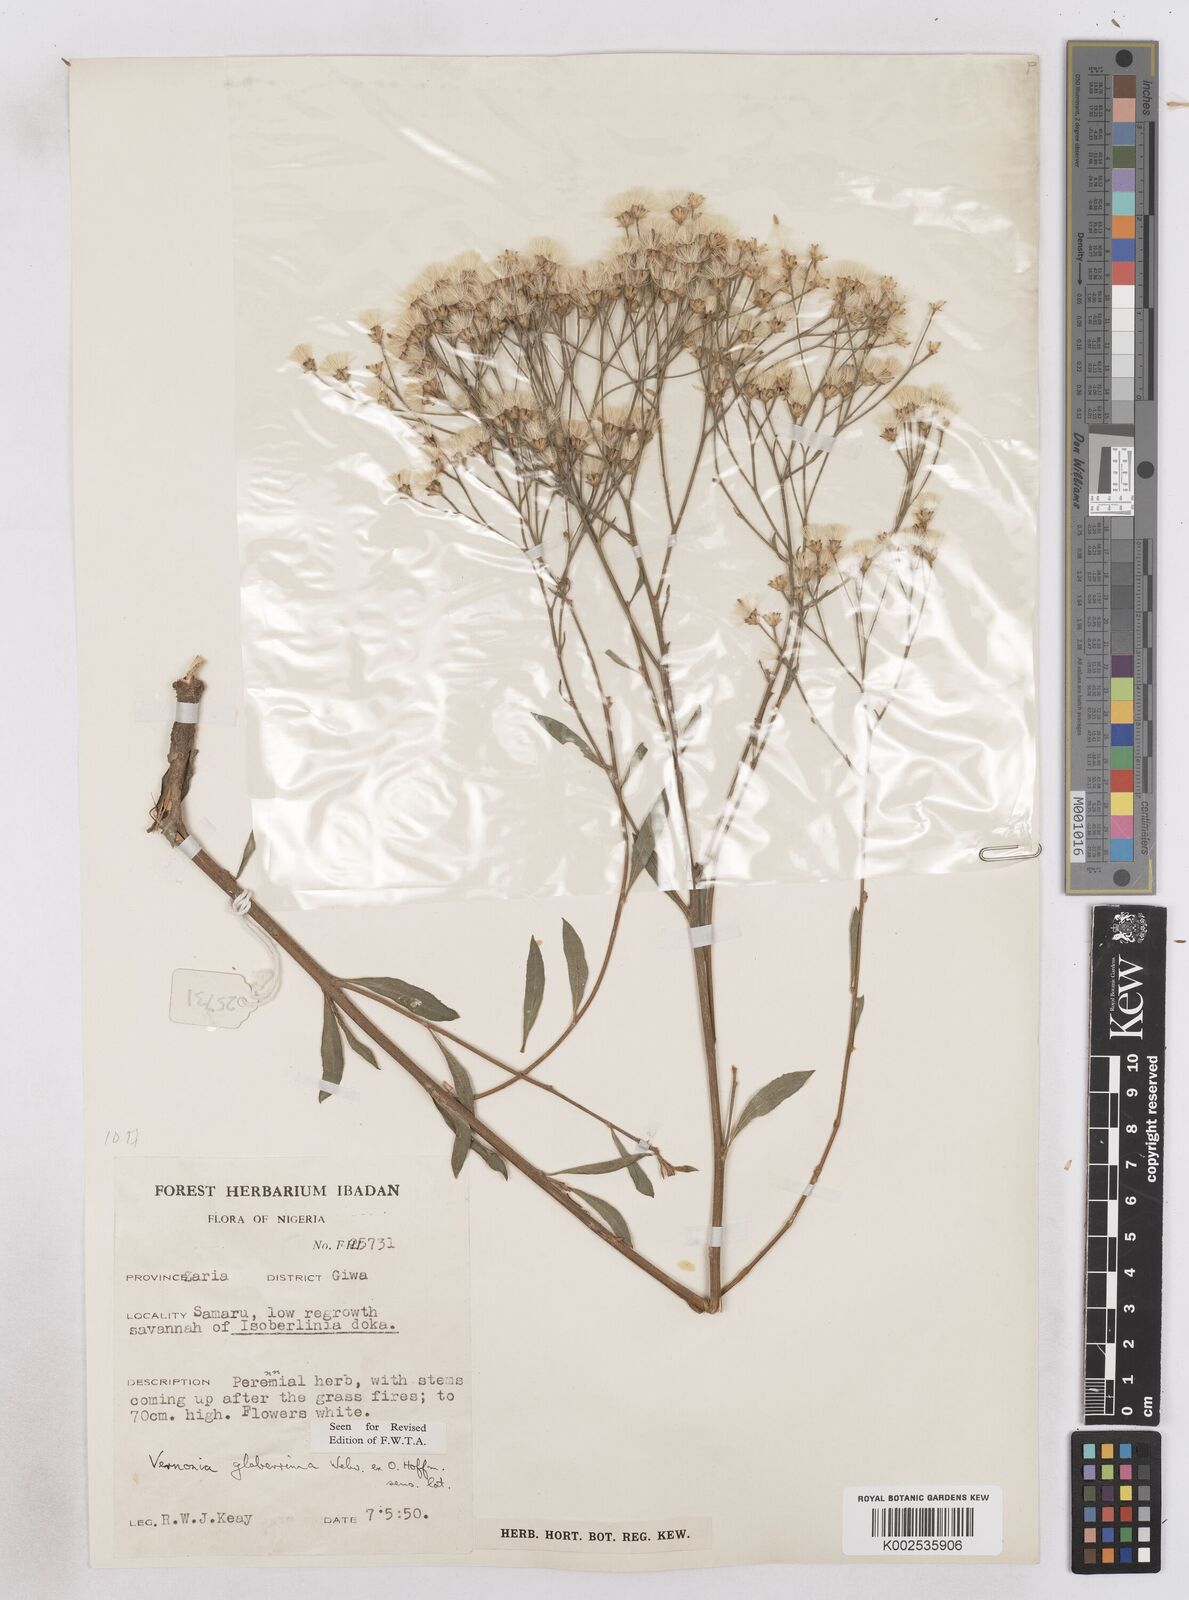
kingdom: Plantae
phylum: Tracheophyta
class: Magnoliopsida
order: Asterales
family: Asteraceae
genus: Gymnanthemum
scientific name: Gymnanthemum glaberrimum
